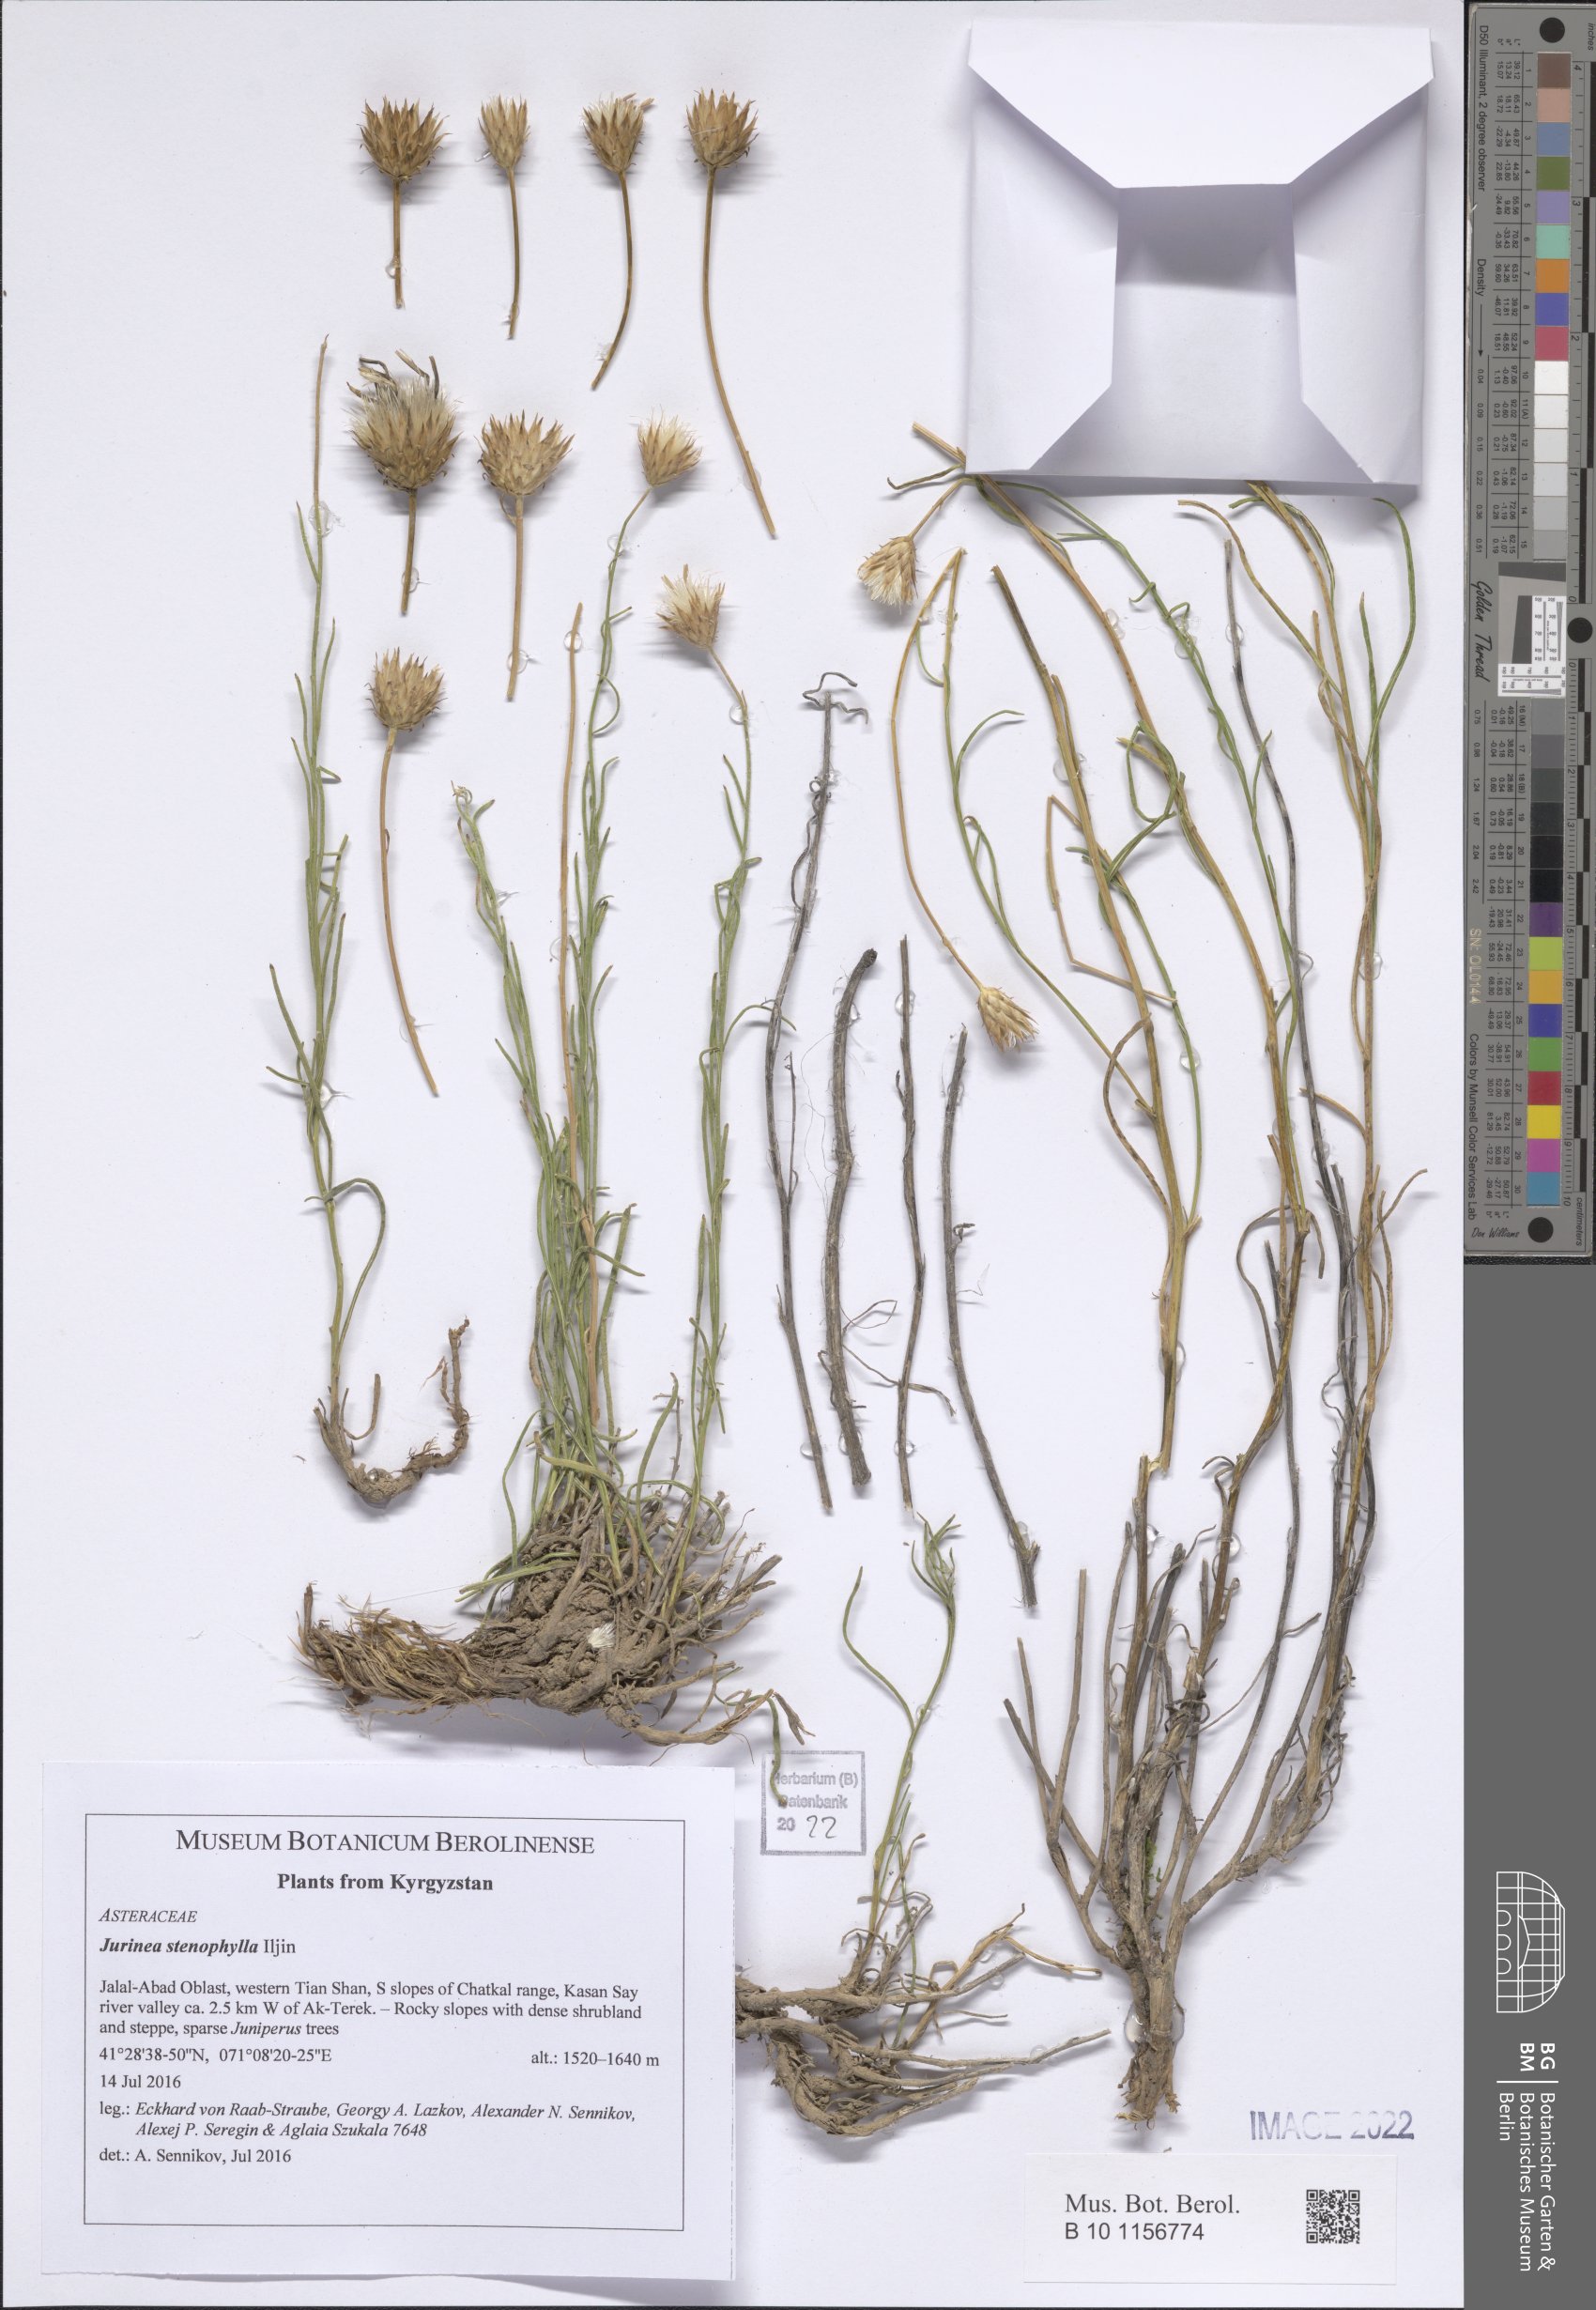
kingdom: Plantae
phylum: Tracheophyta
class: Magnoliopsida
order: Asterales
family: Asteraceae
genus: Jurinea
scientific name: Jurinea stenophylla
